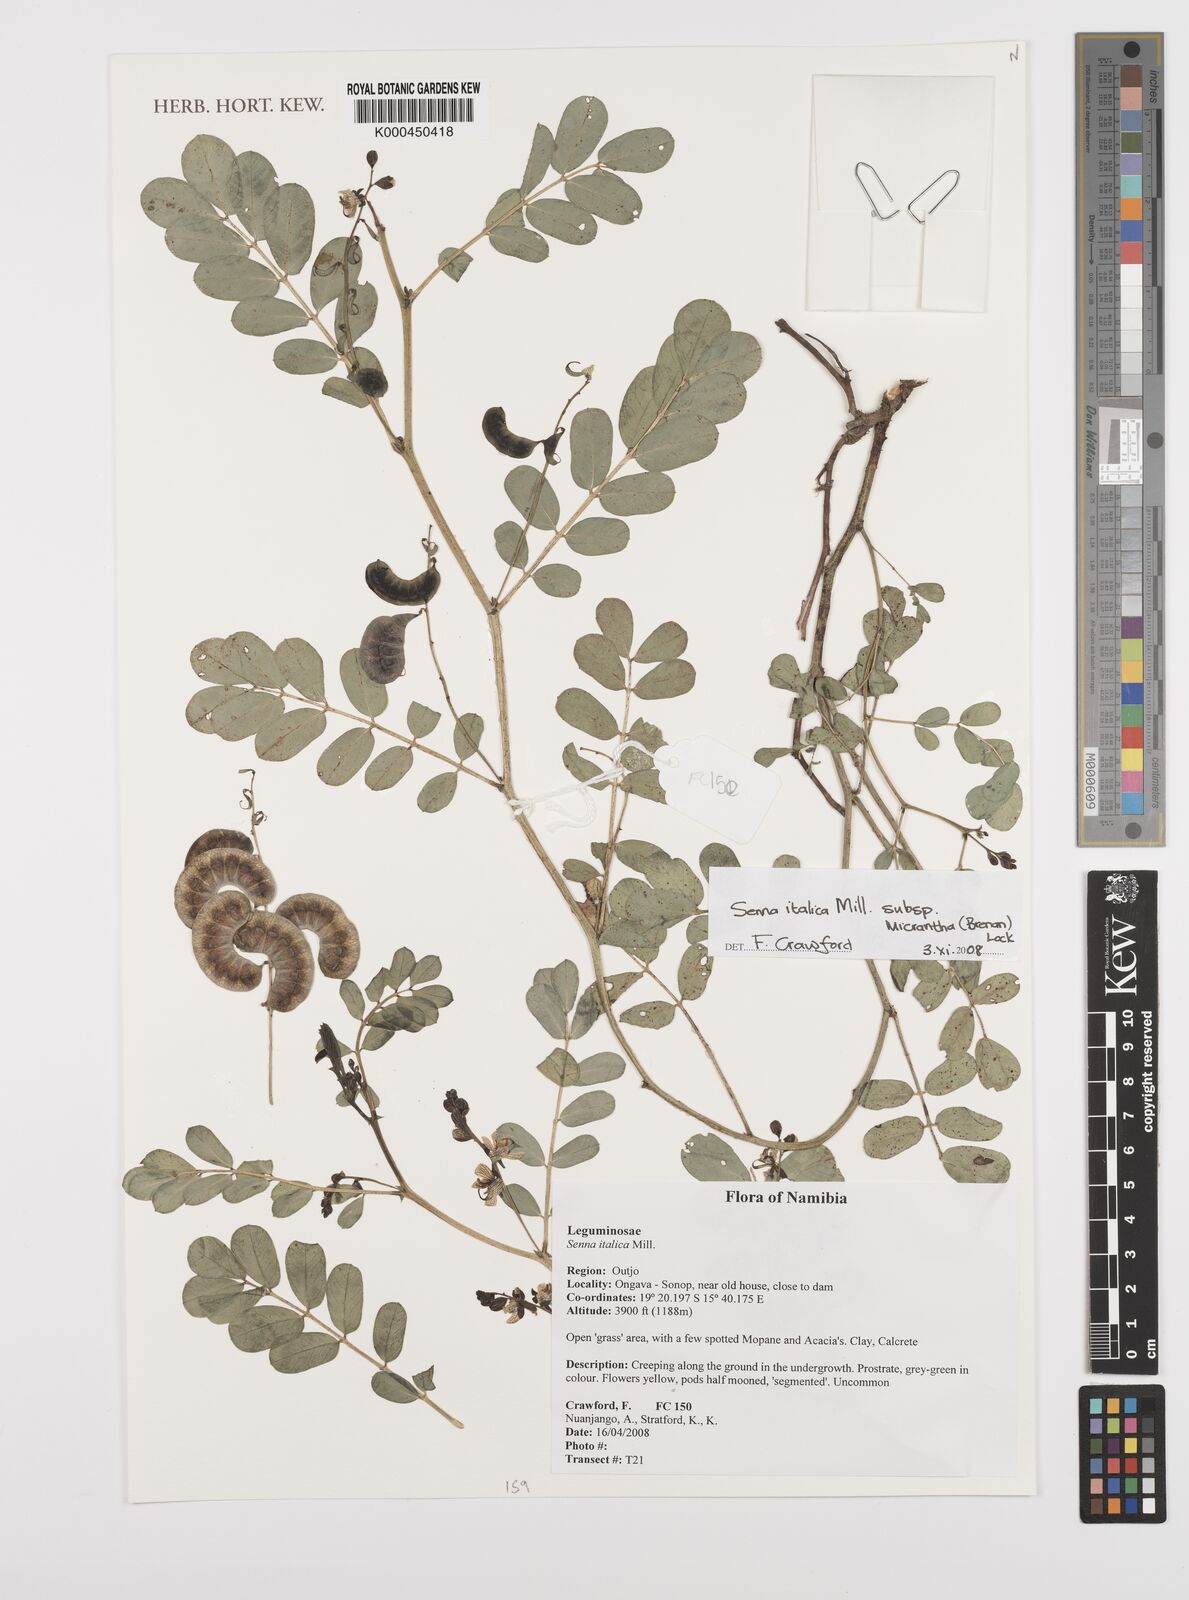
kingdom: Plantae
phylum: Tracheophyta
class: Magnoliopsida
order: Fabales
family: Fabaceae
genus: Senna
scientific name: Senna italica
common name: Port royal senna
